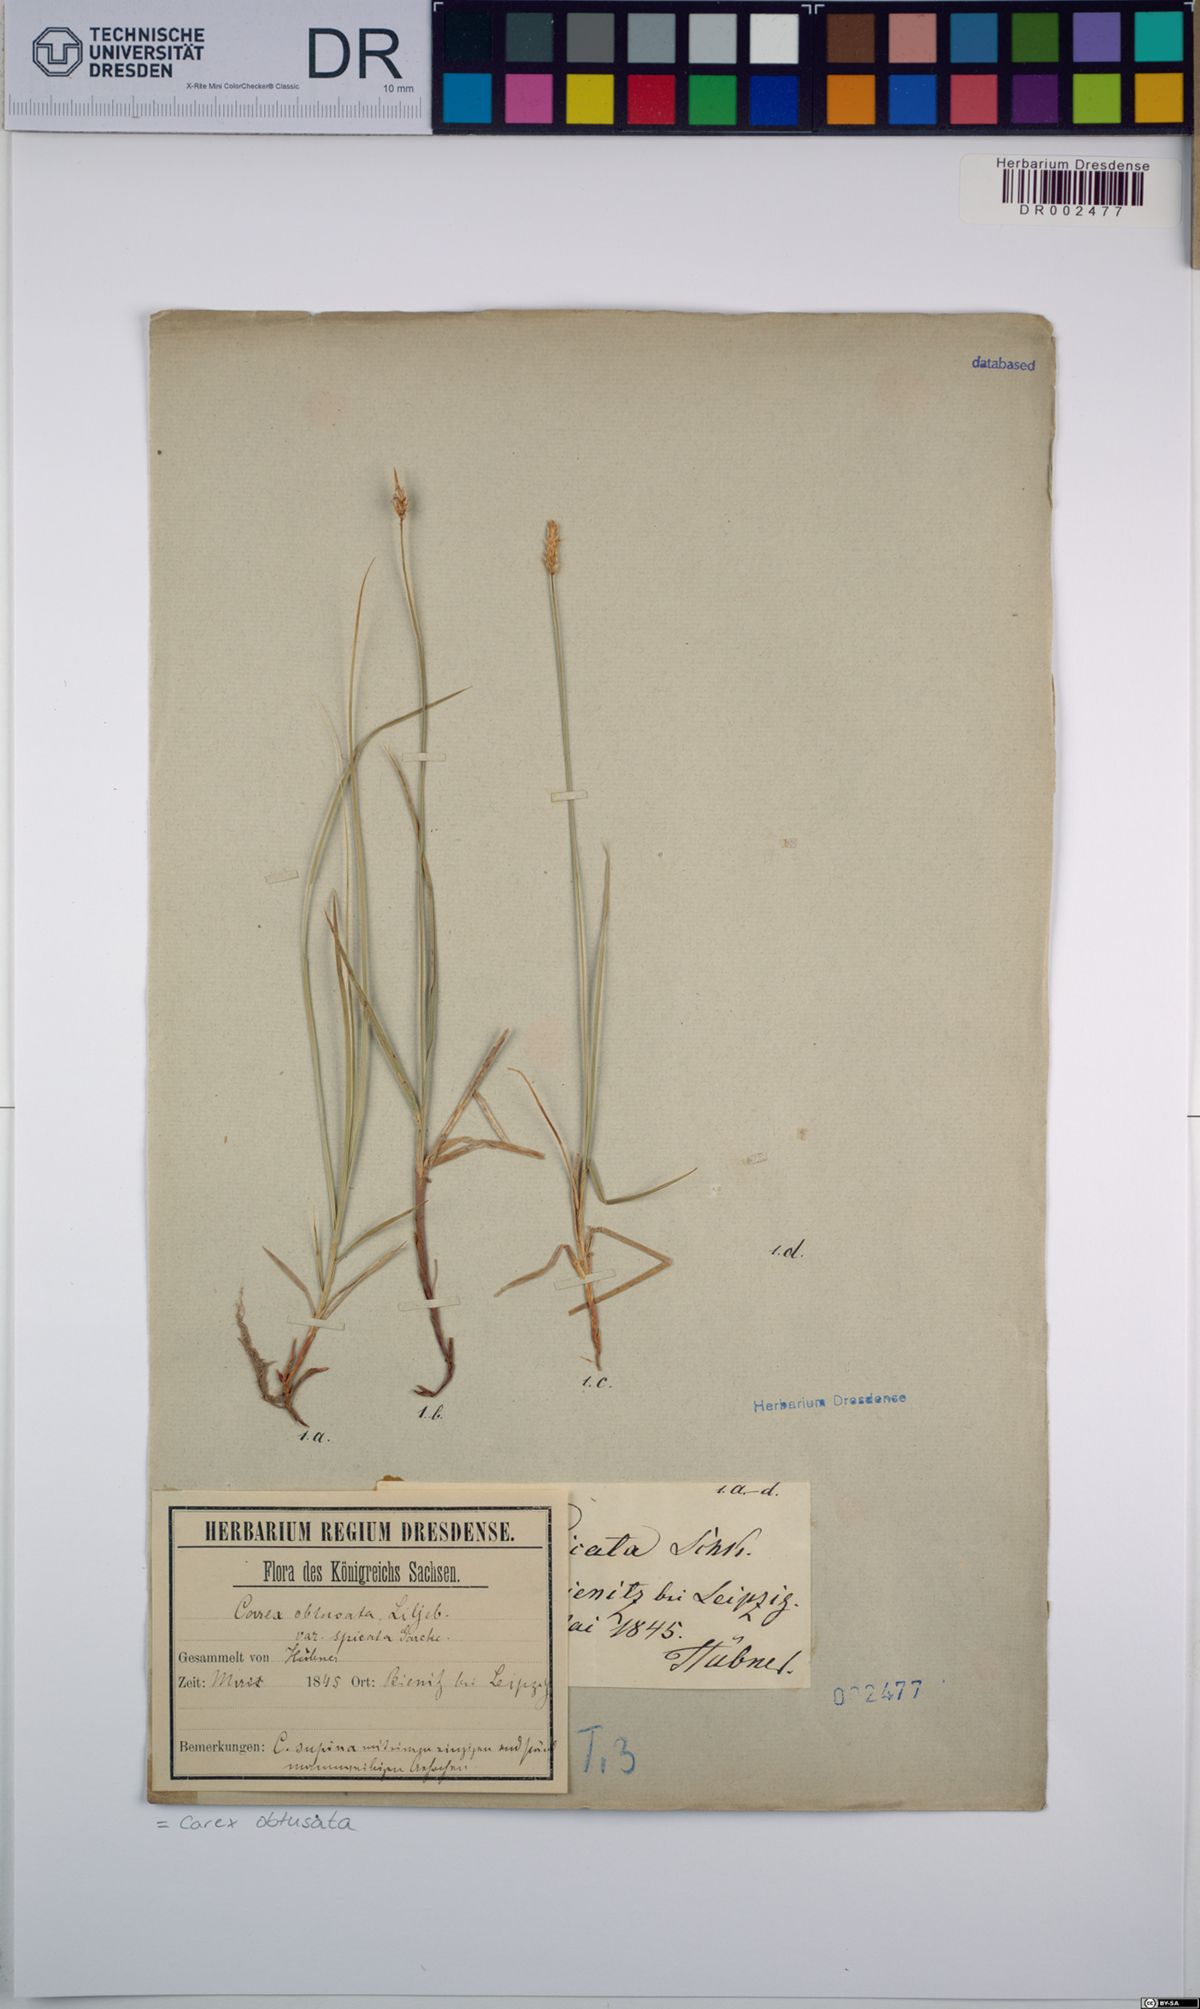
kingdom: Plantae
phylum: Tracheophyta
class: Liliopsida
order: Poales
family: Cyperaceae
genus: Carex
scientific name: Carex obtusata
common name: Blunt sedge
